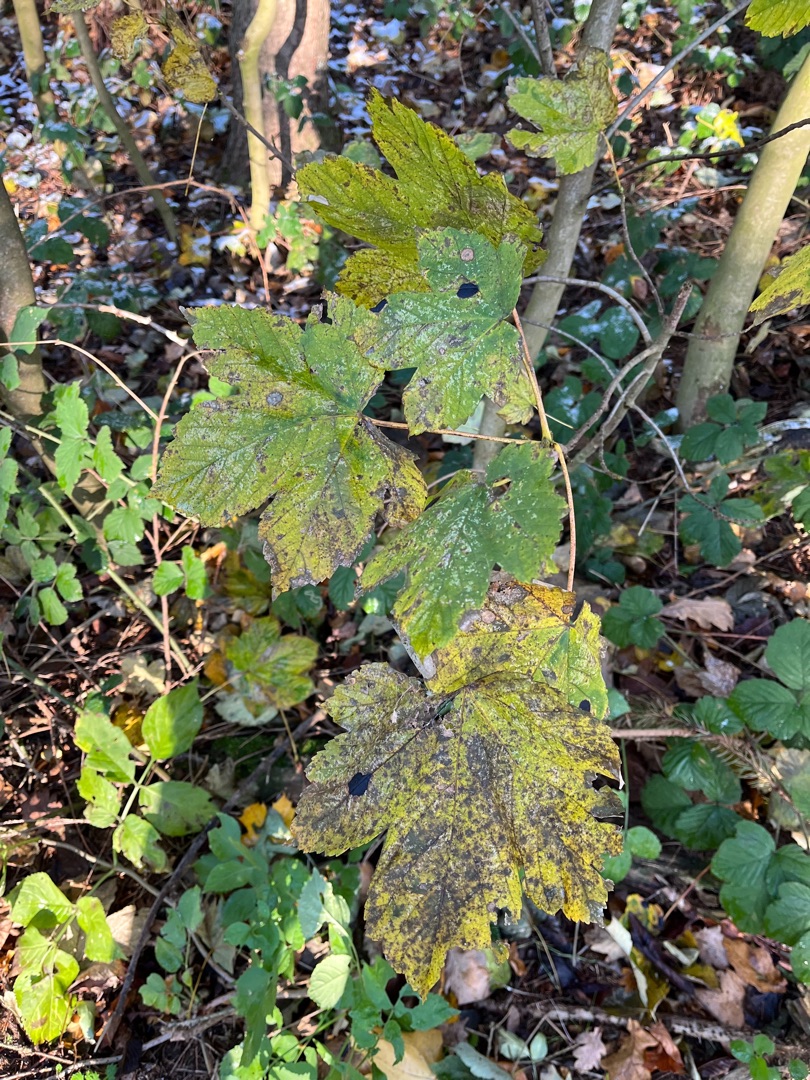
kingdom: Plantae
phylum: Tracheophyta
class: Magnoliopsida
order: Sapindales
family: Sapindaceae
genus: Acer
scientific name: Acer pseudoplatanus
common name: Ahorn
